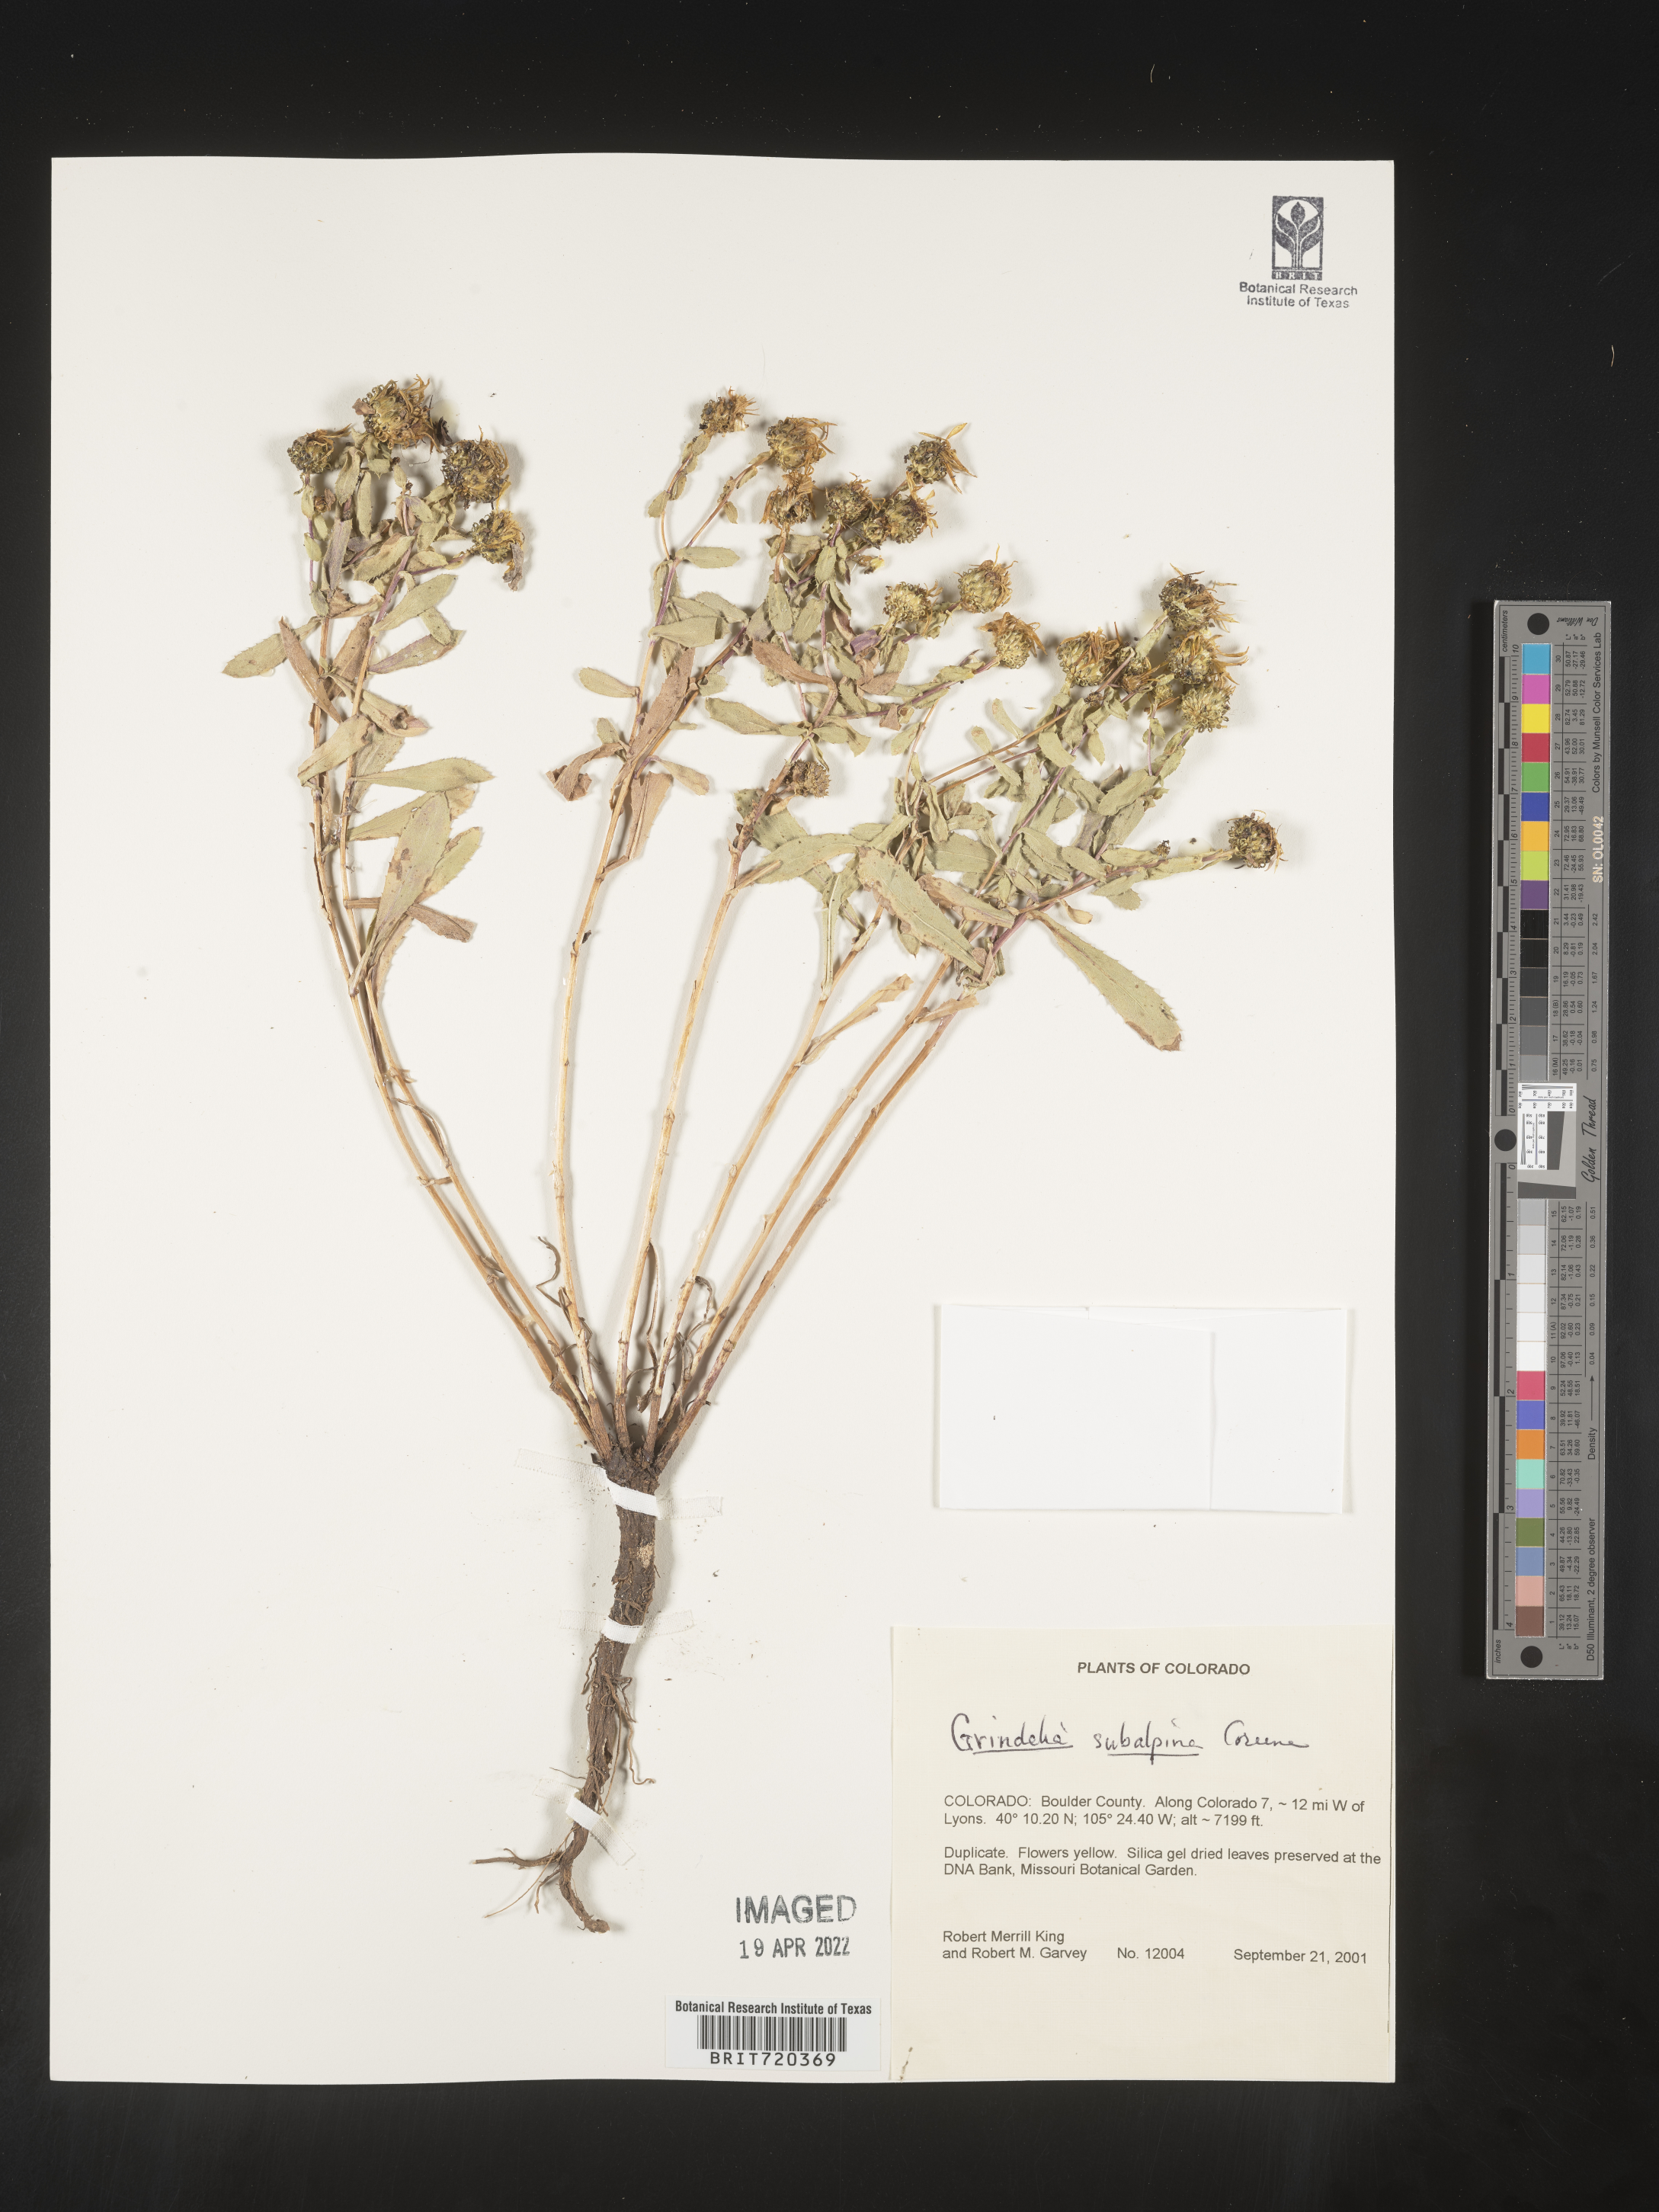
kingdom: Plantae
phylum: Tracheophyta
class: Magnoliopsida
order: Asterales
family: Asteraceae
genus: Grindelia
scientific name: Grindelia subalpina
